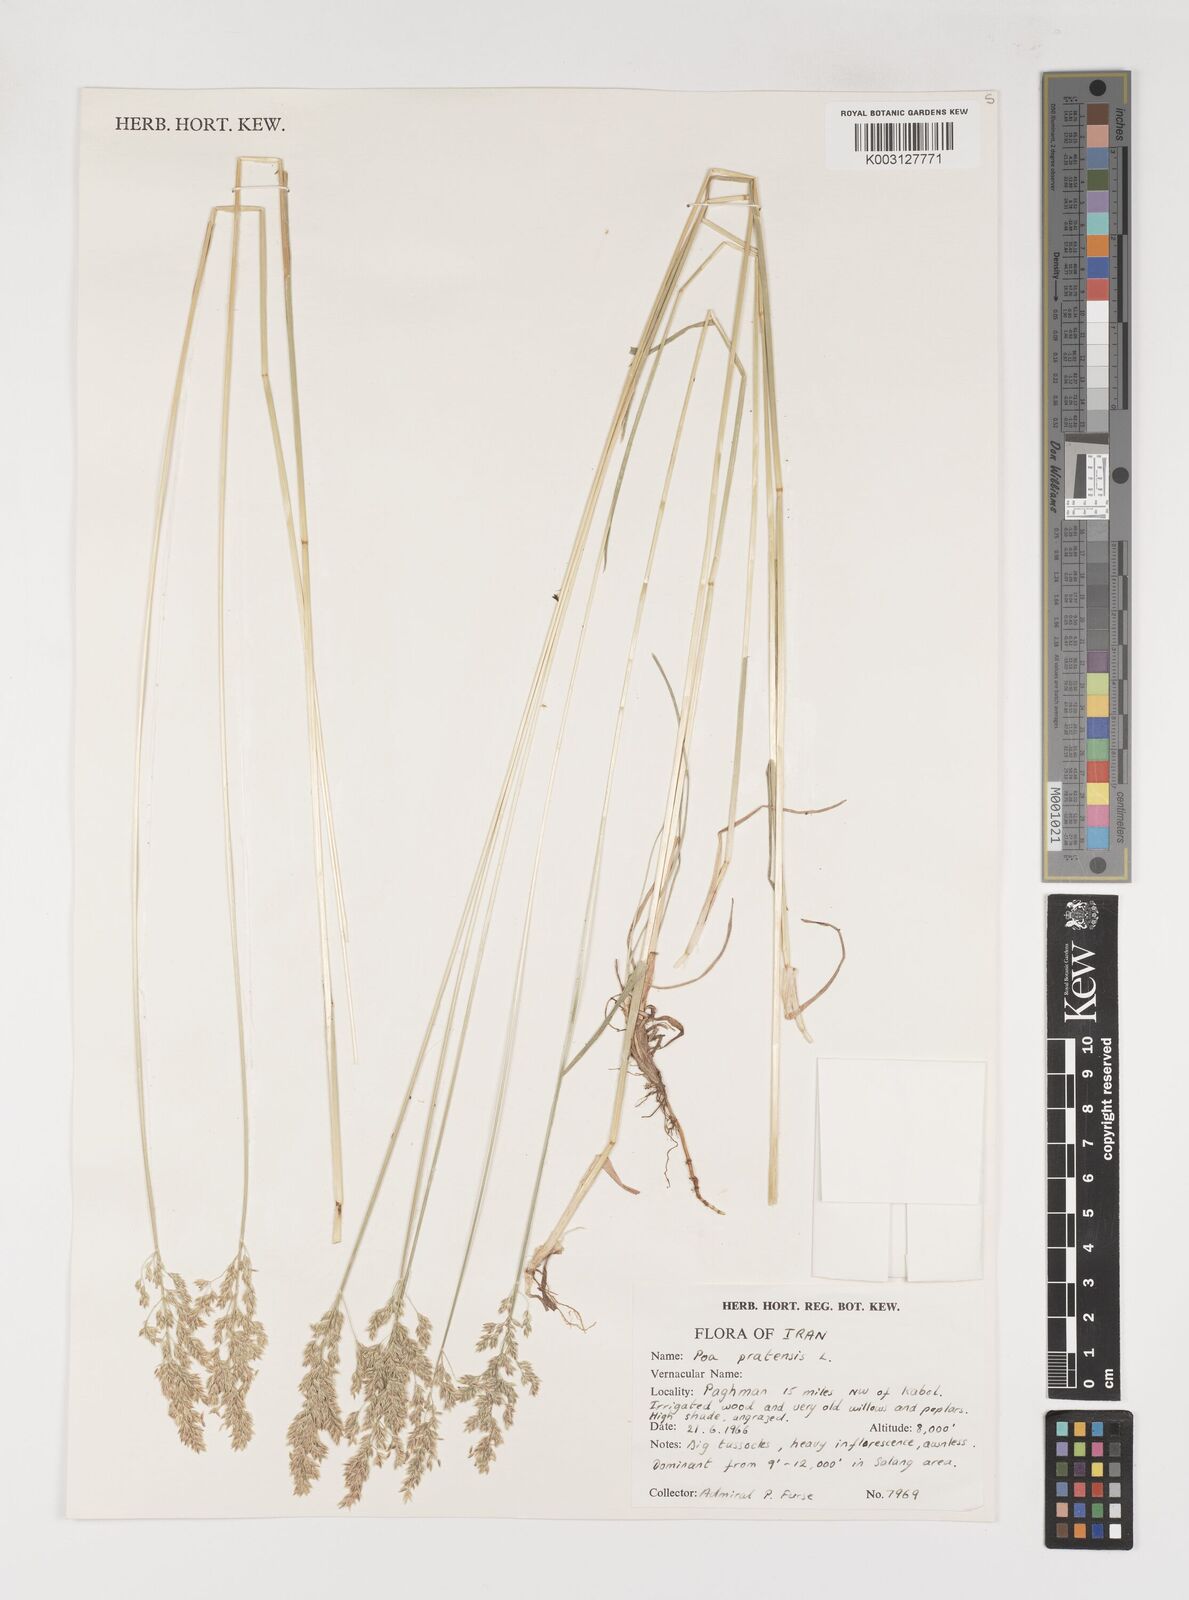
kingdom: Plantae
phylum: Tracheophyta
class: Liliopsida
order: Poales
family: Poaceae
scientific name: Poaceae
